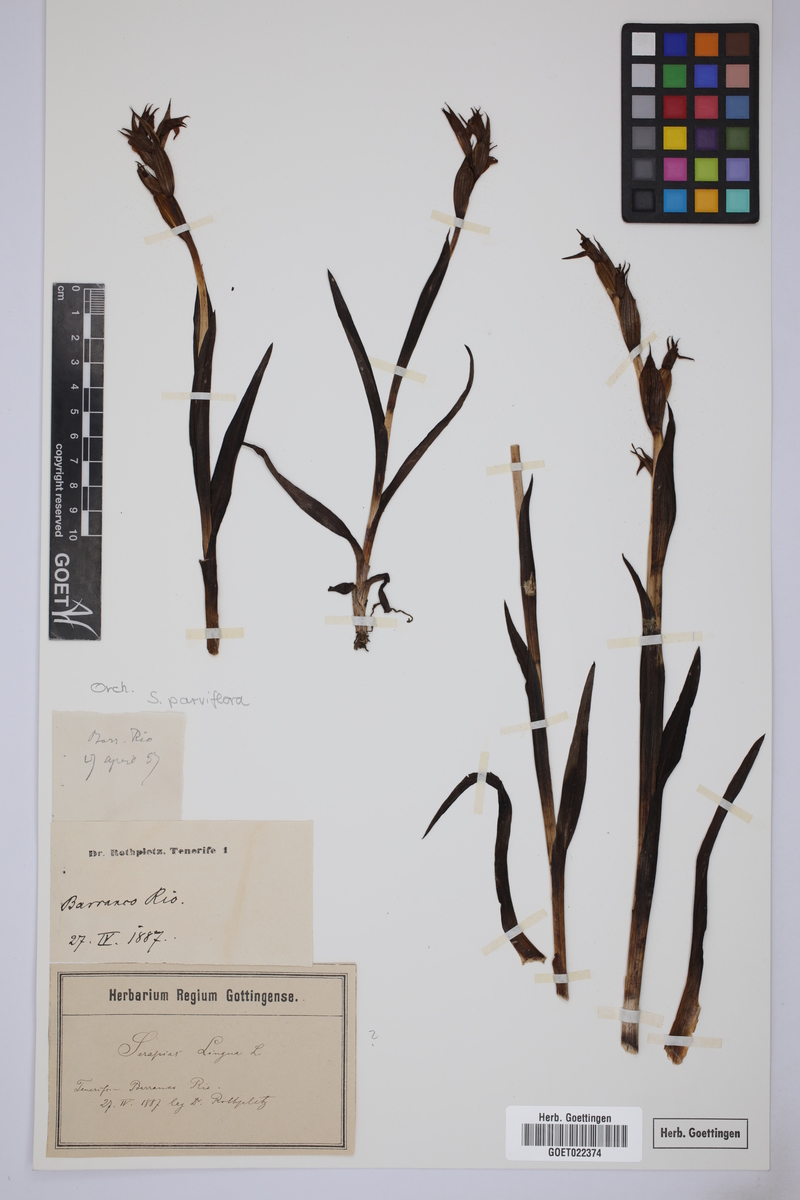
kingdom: Plantae
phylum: Tracheophyta
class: Liliopsida
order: Asparagales
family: Orchidaceae
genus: Serapias
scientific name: Serapias parviflora
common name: Small-flowered tongue-orchid
